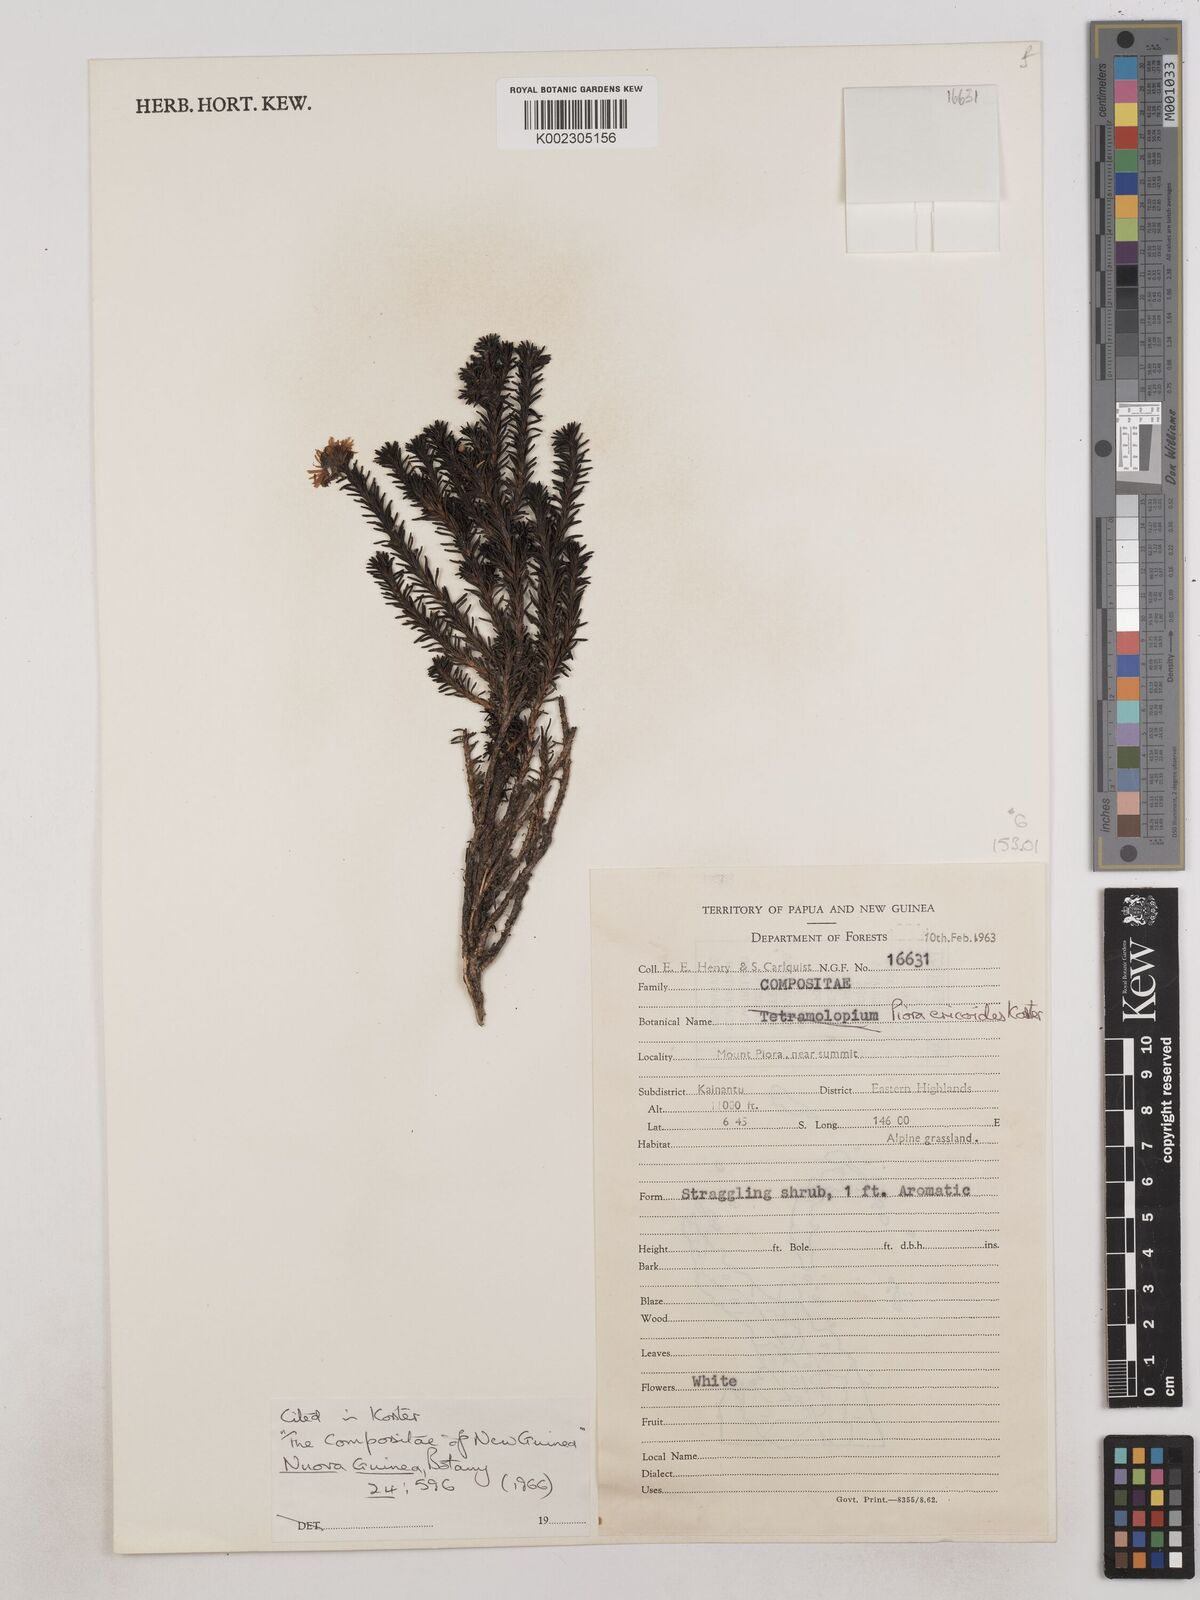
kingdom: Plantae
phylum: Tracheophyta
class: Magnoliopsida
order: Asterales
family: Asteraceae
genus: Piora
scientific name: Piora ericoides
